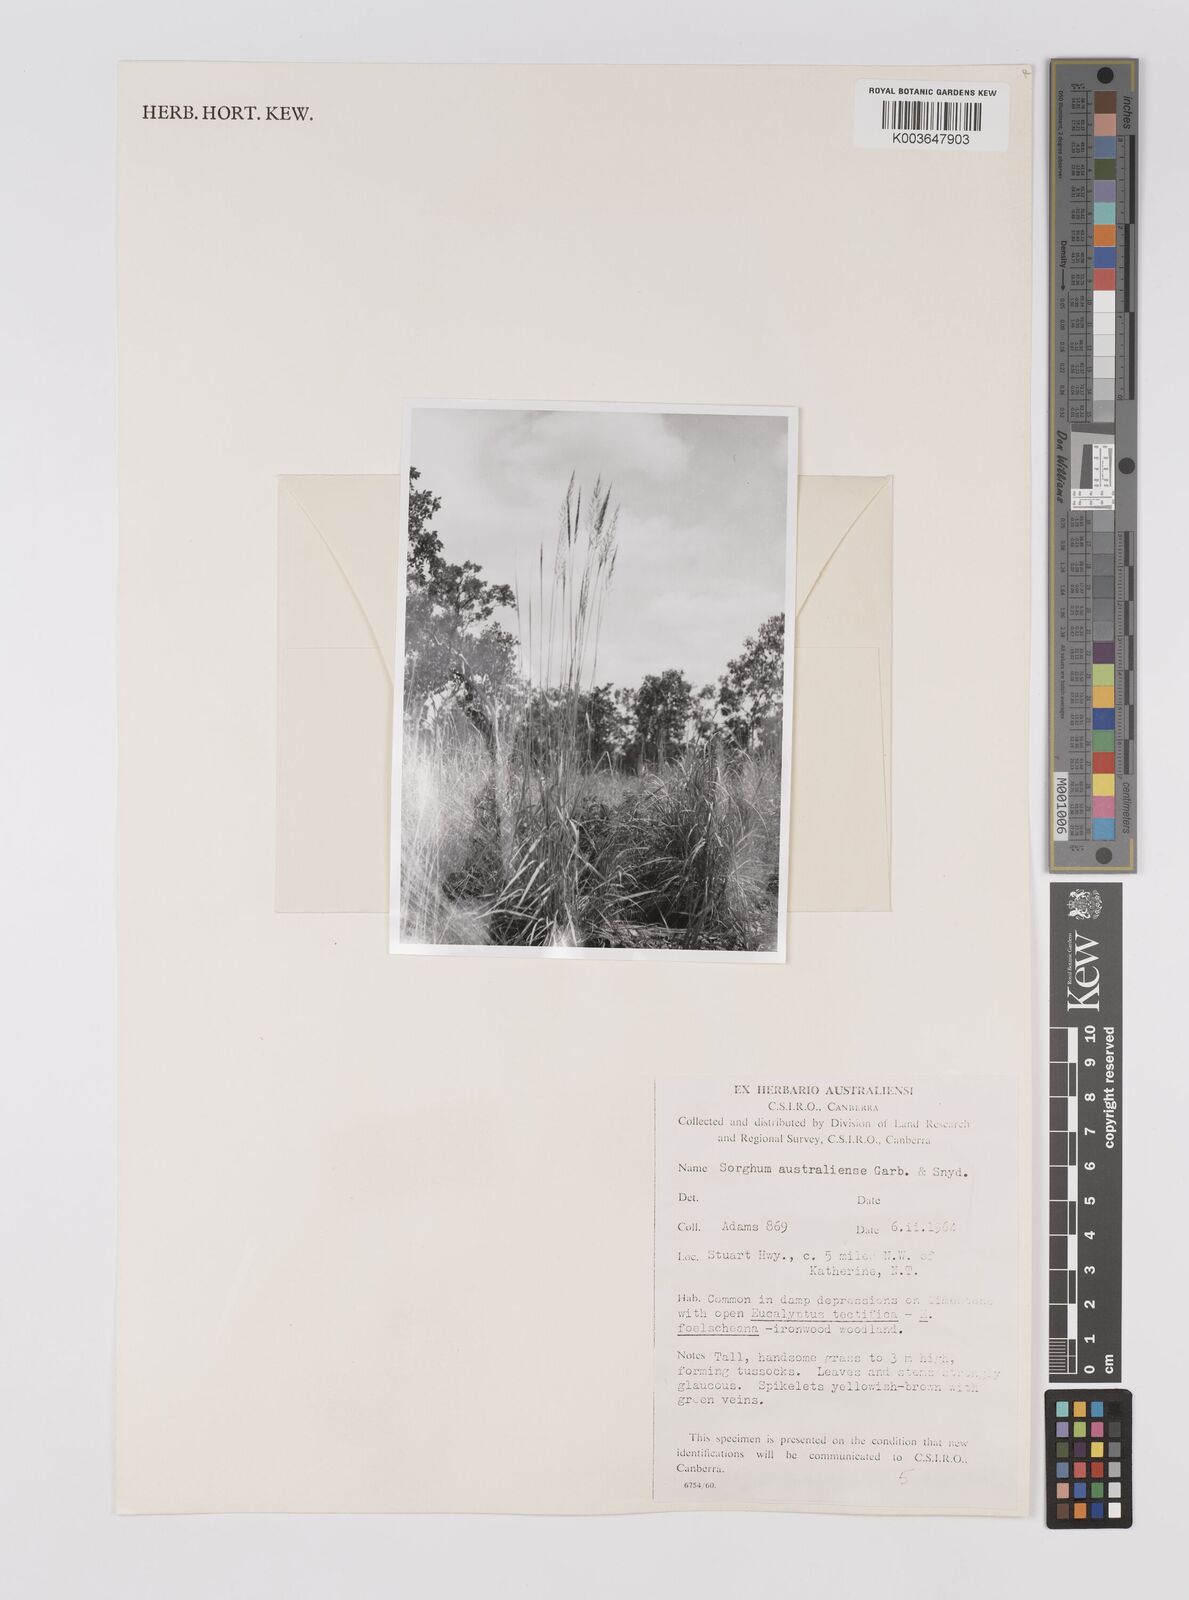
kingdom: Plantae
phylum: Tracheophyta
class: Liliopsida
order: Poales
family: Poaceae
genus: Sarga
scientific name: Sarga timorensis
